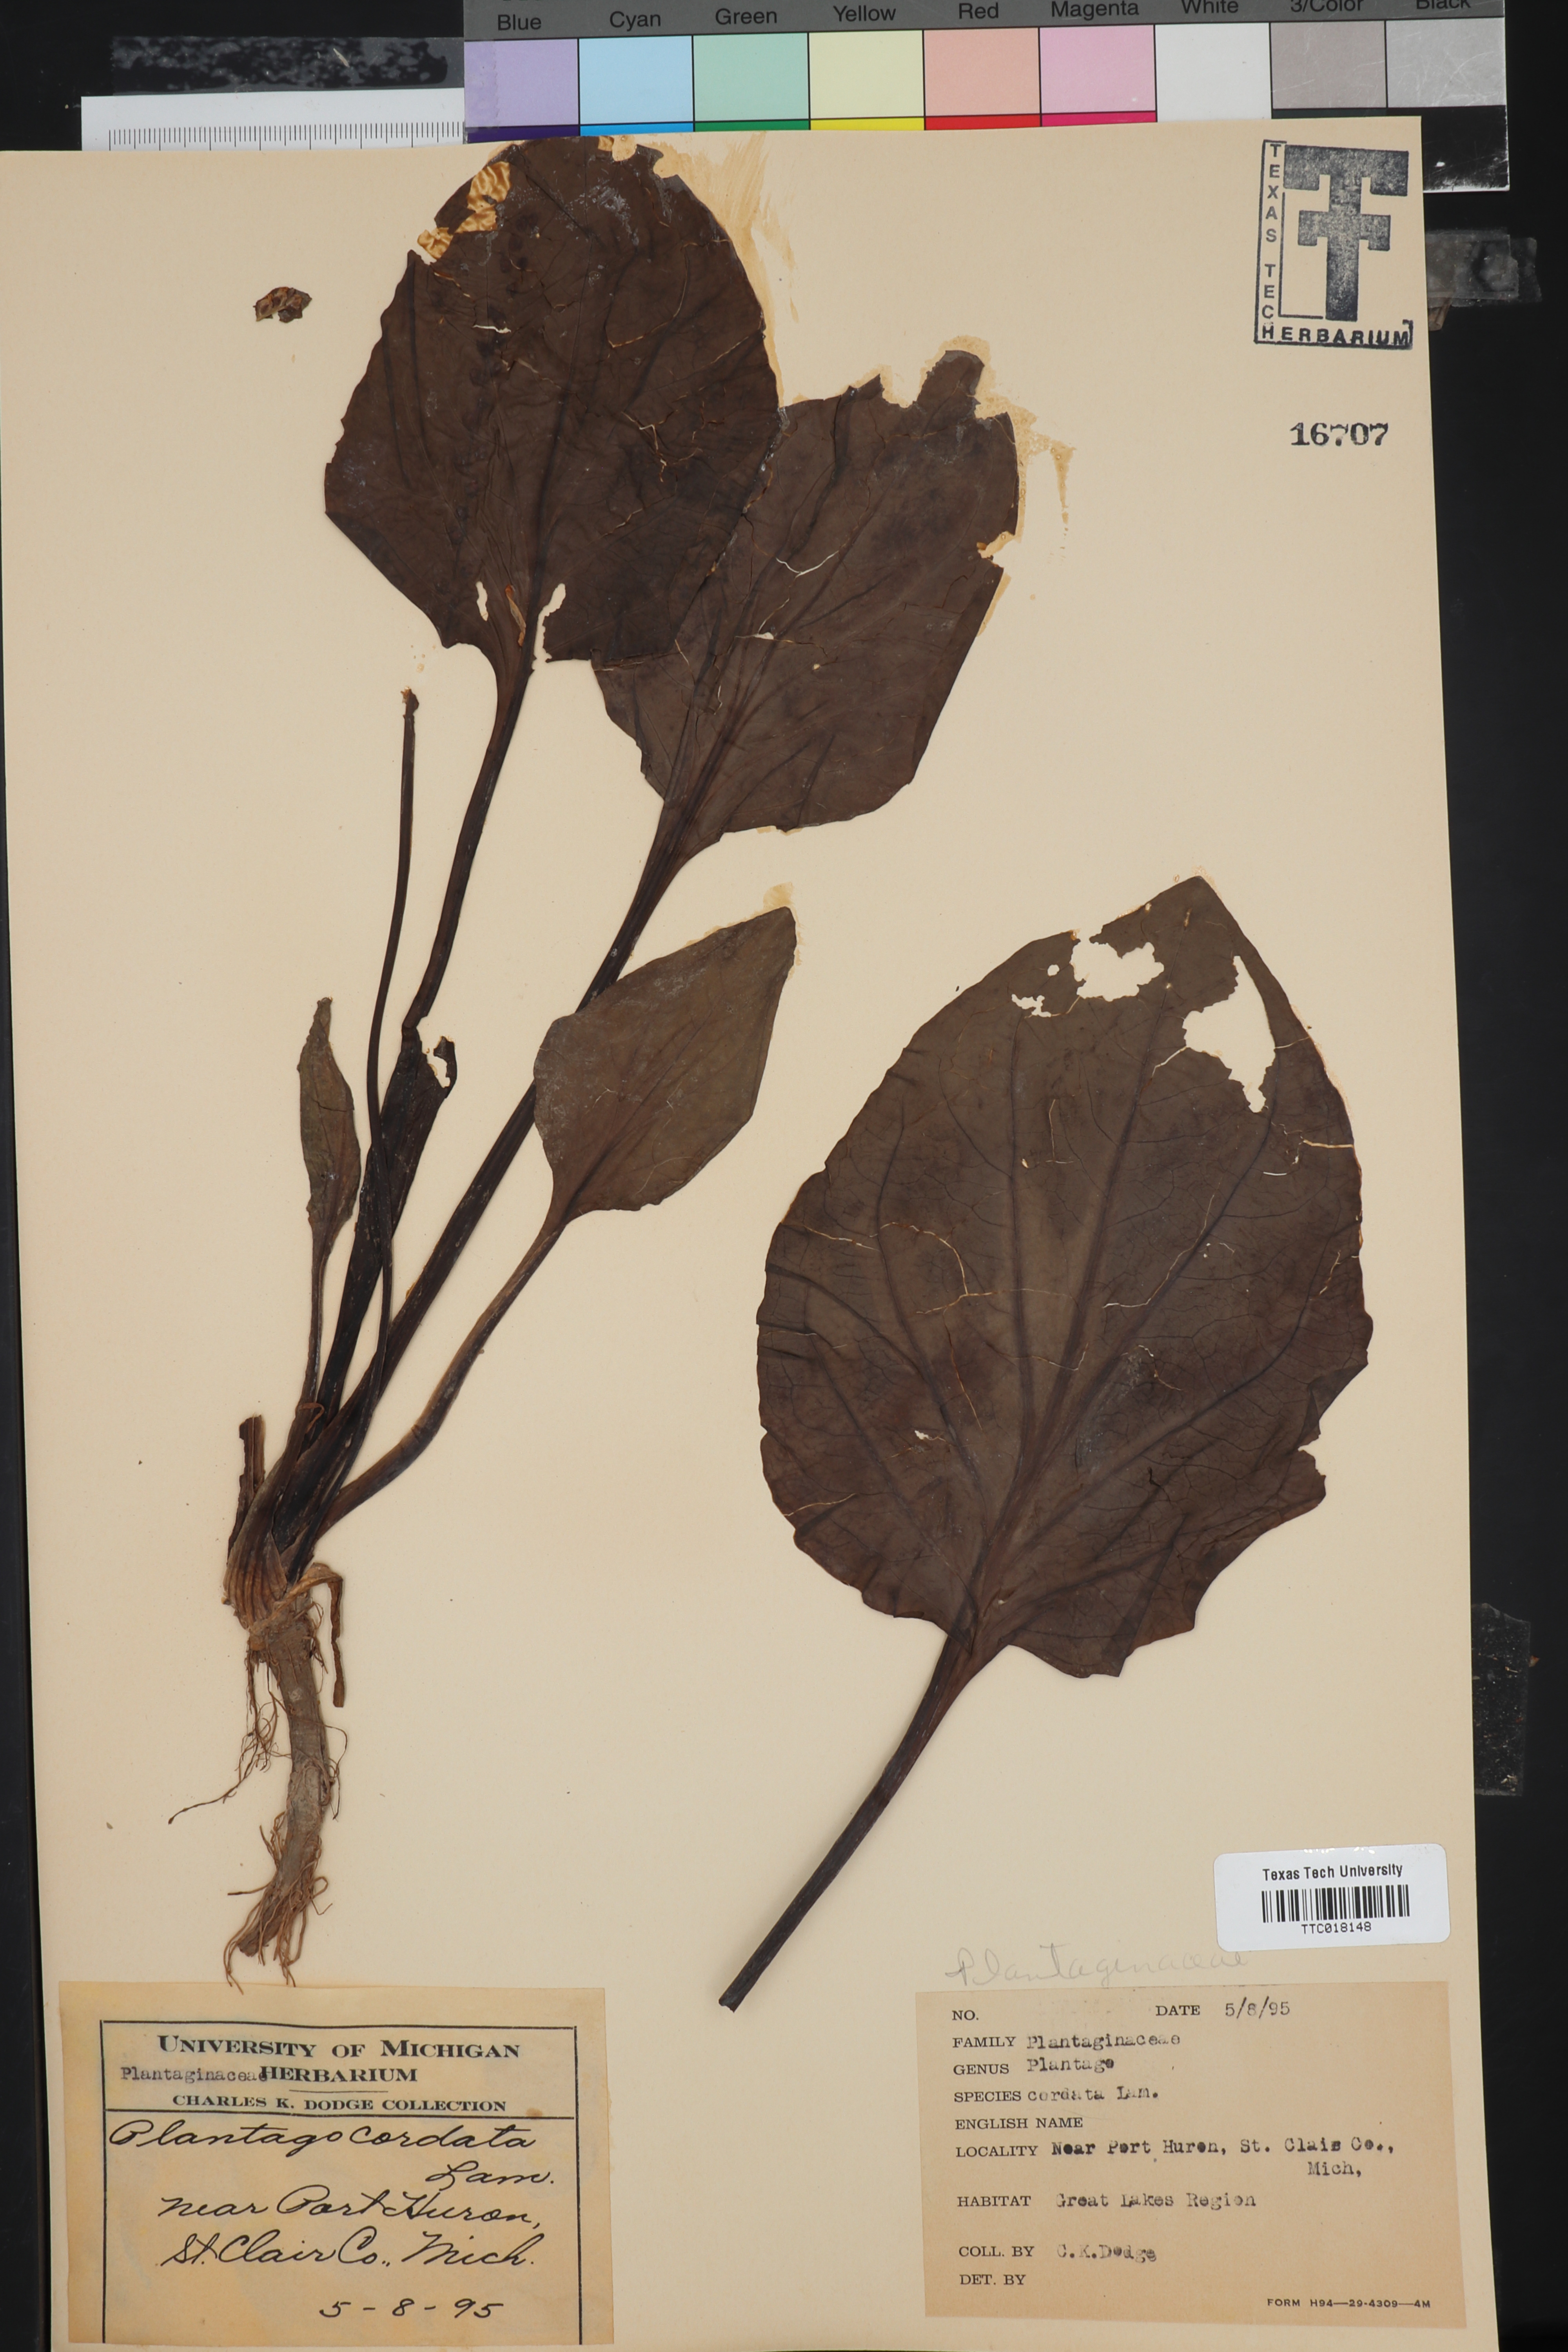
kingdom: Plantae
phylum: Tracheophyta
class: Magnoliopsida
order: Lamiales
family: Plantaginaceae
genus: Plantago
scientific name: Plantago aristata
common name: Bracted plantain
